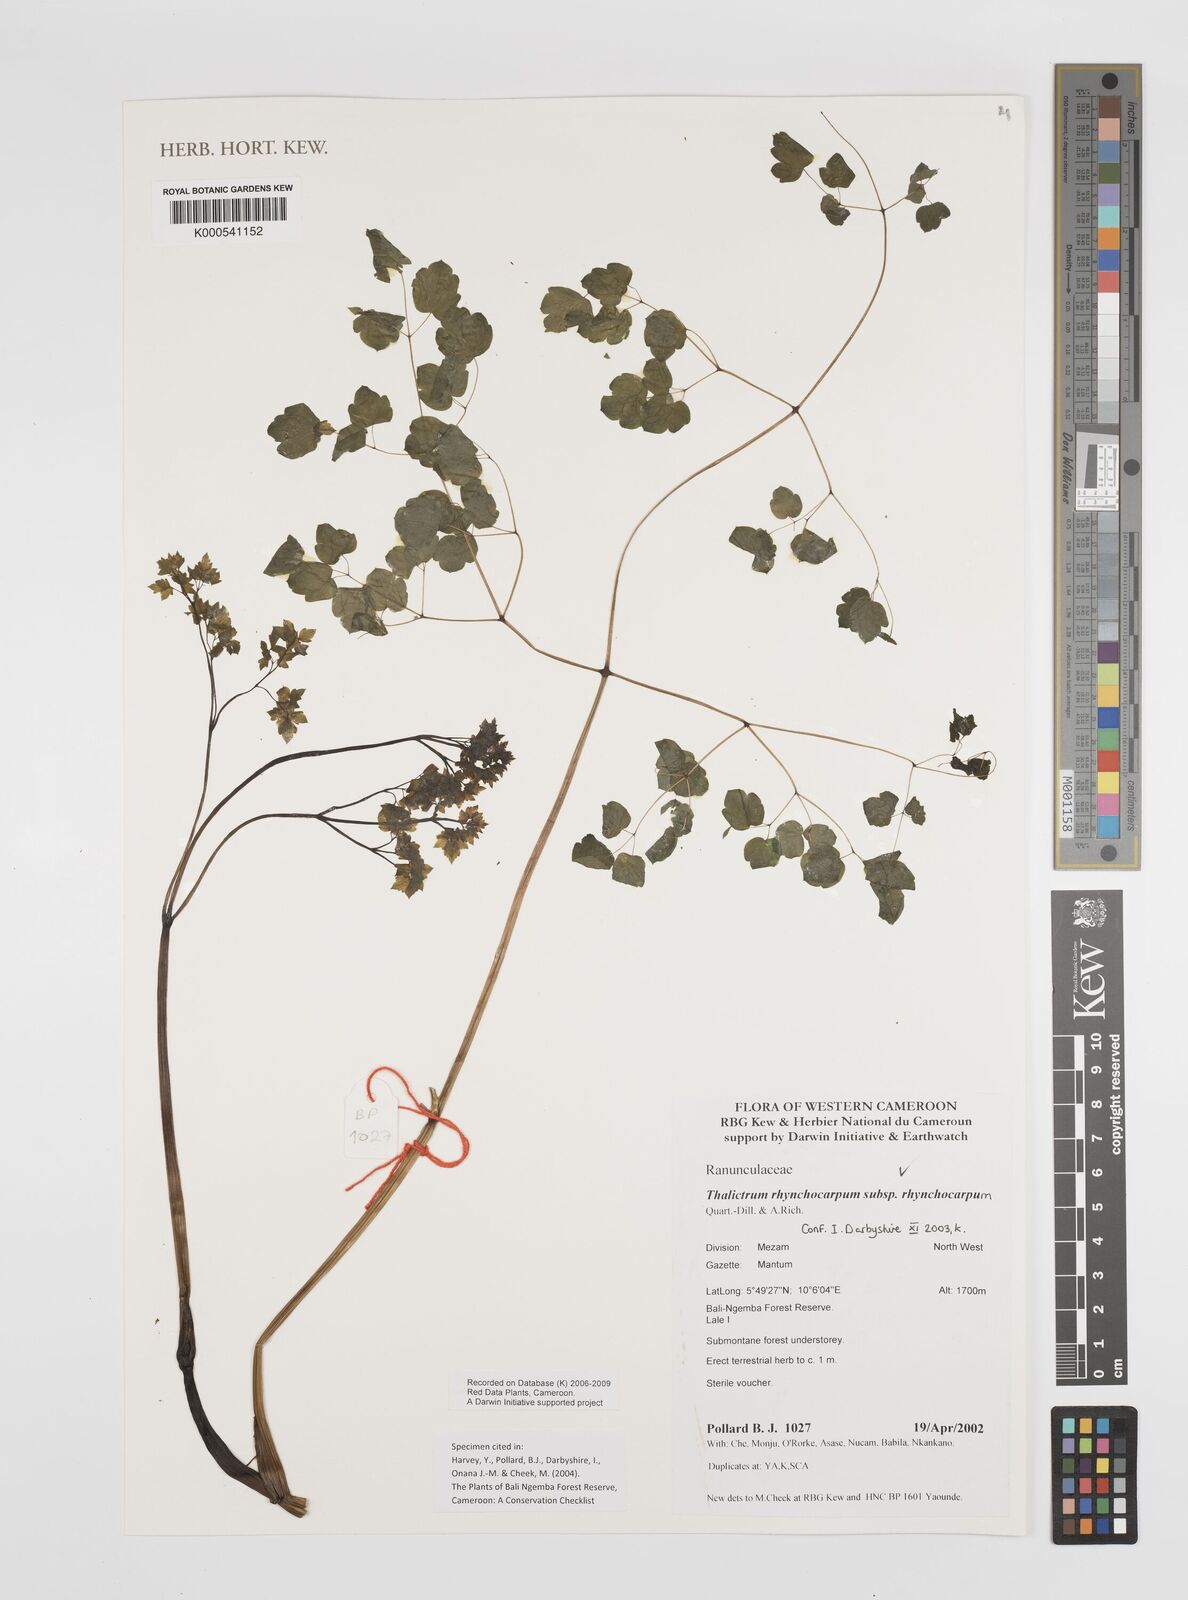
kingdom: Plantae
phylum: Tracheophyta
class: Magnoliopsida
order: Ranunculales
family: Ranunculaceae
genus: Thalictrum
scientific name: Thalictrum rhynchocarpum
